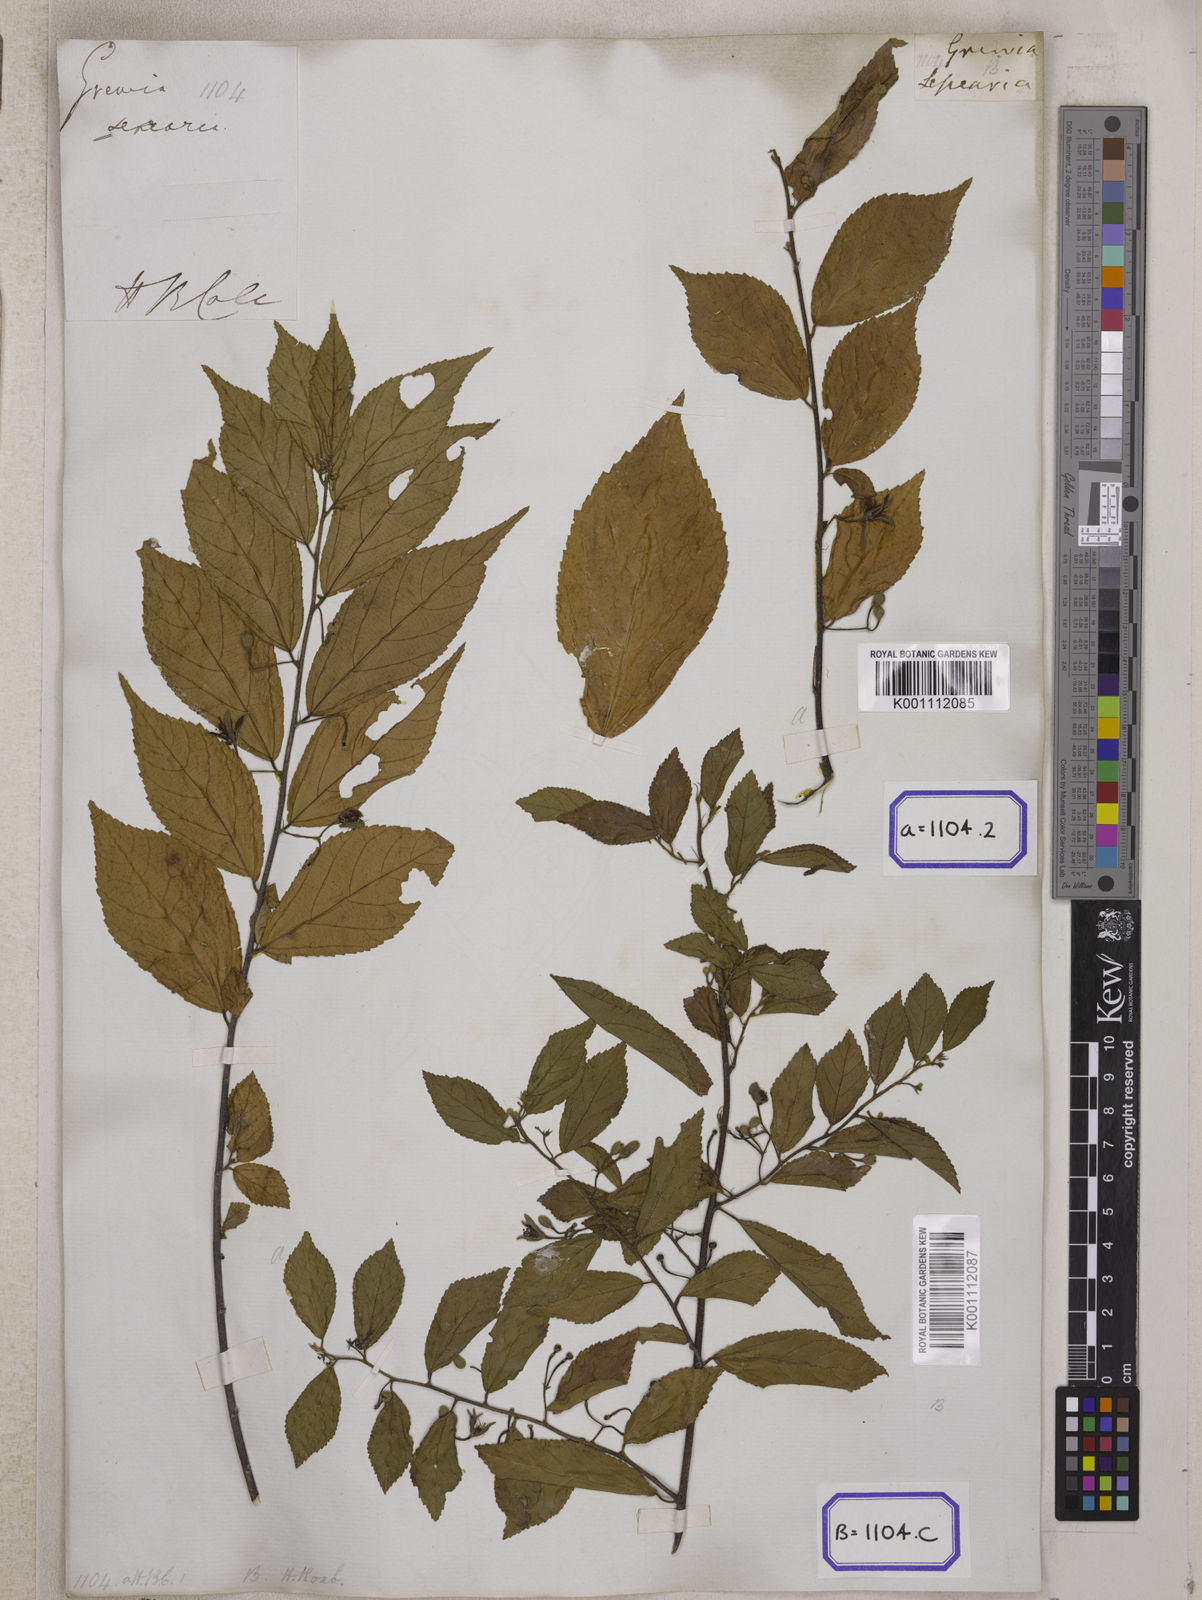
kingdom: Plantae
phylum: Tracheophyta
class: Magnoliopsida
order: Malvales
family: Malvaceae
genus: Grewia
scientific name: Grewia
